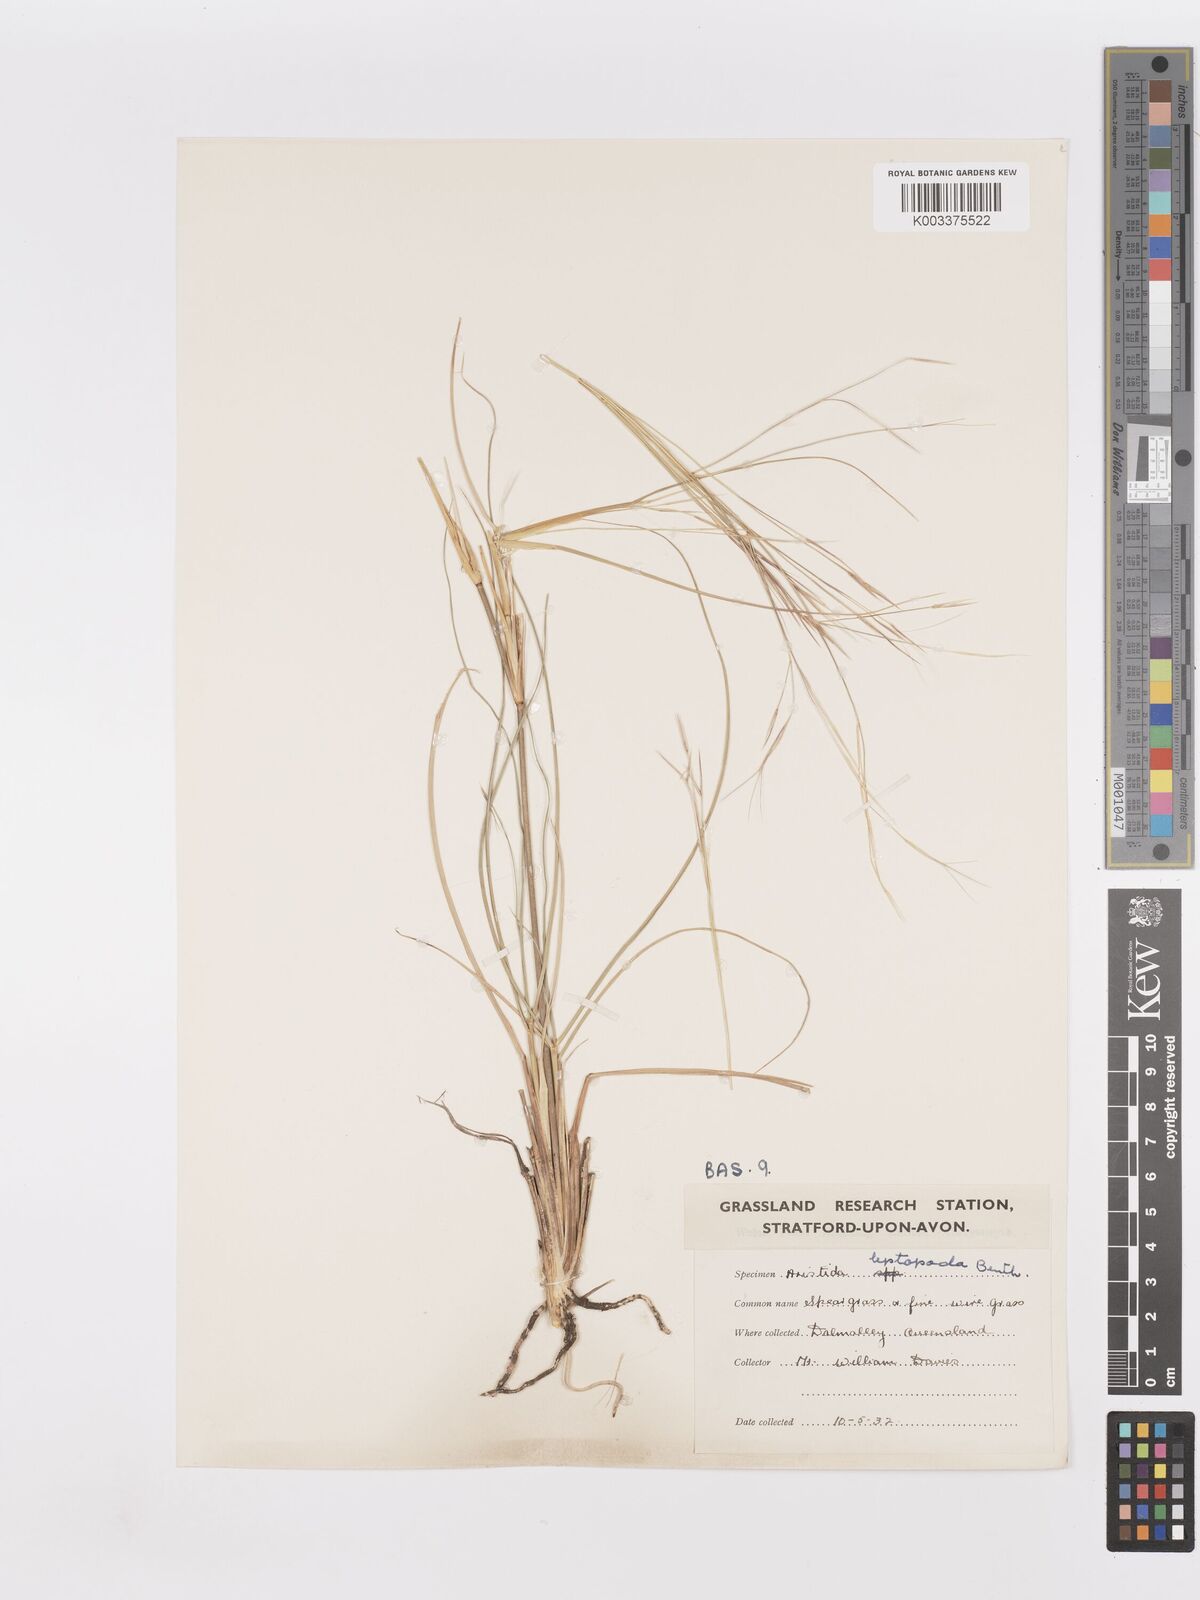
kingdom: Plantae
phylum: Tracheophyta
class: Liliopsida
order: Poales
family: Poaceae
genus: Aristida
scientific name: Aristida leptopoda
